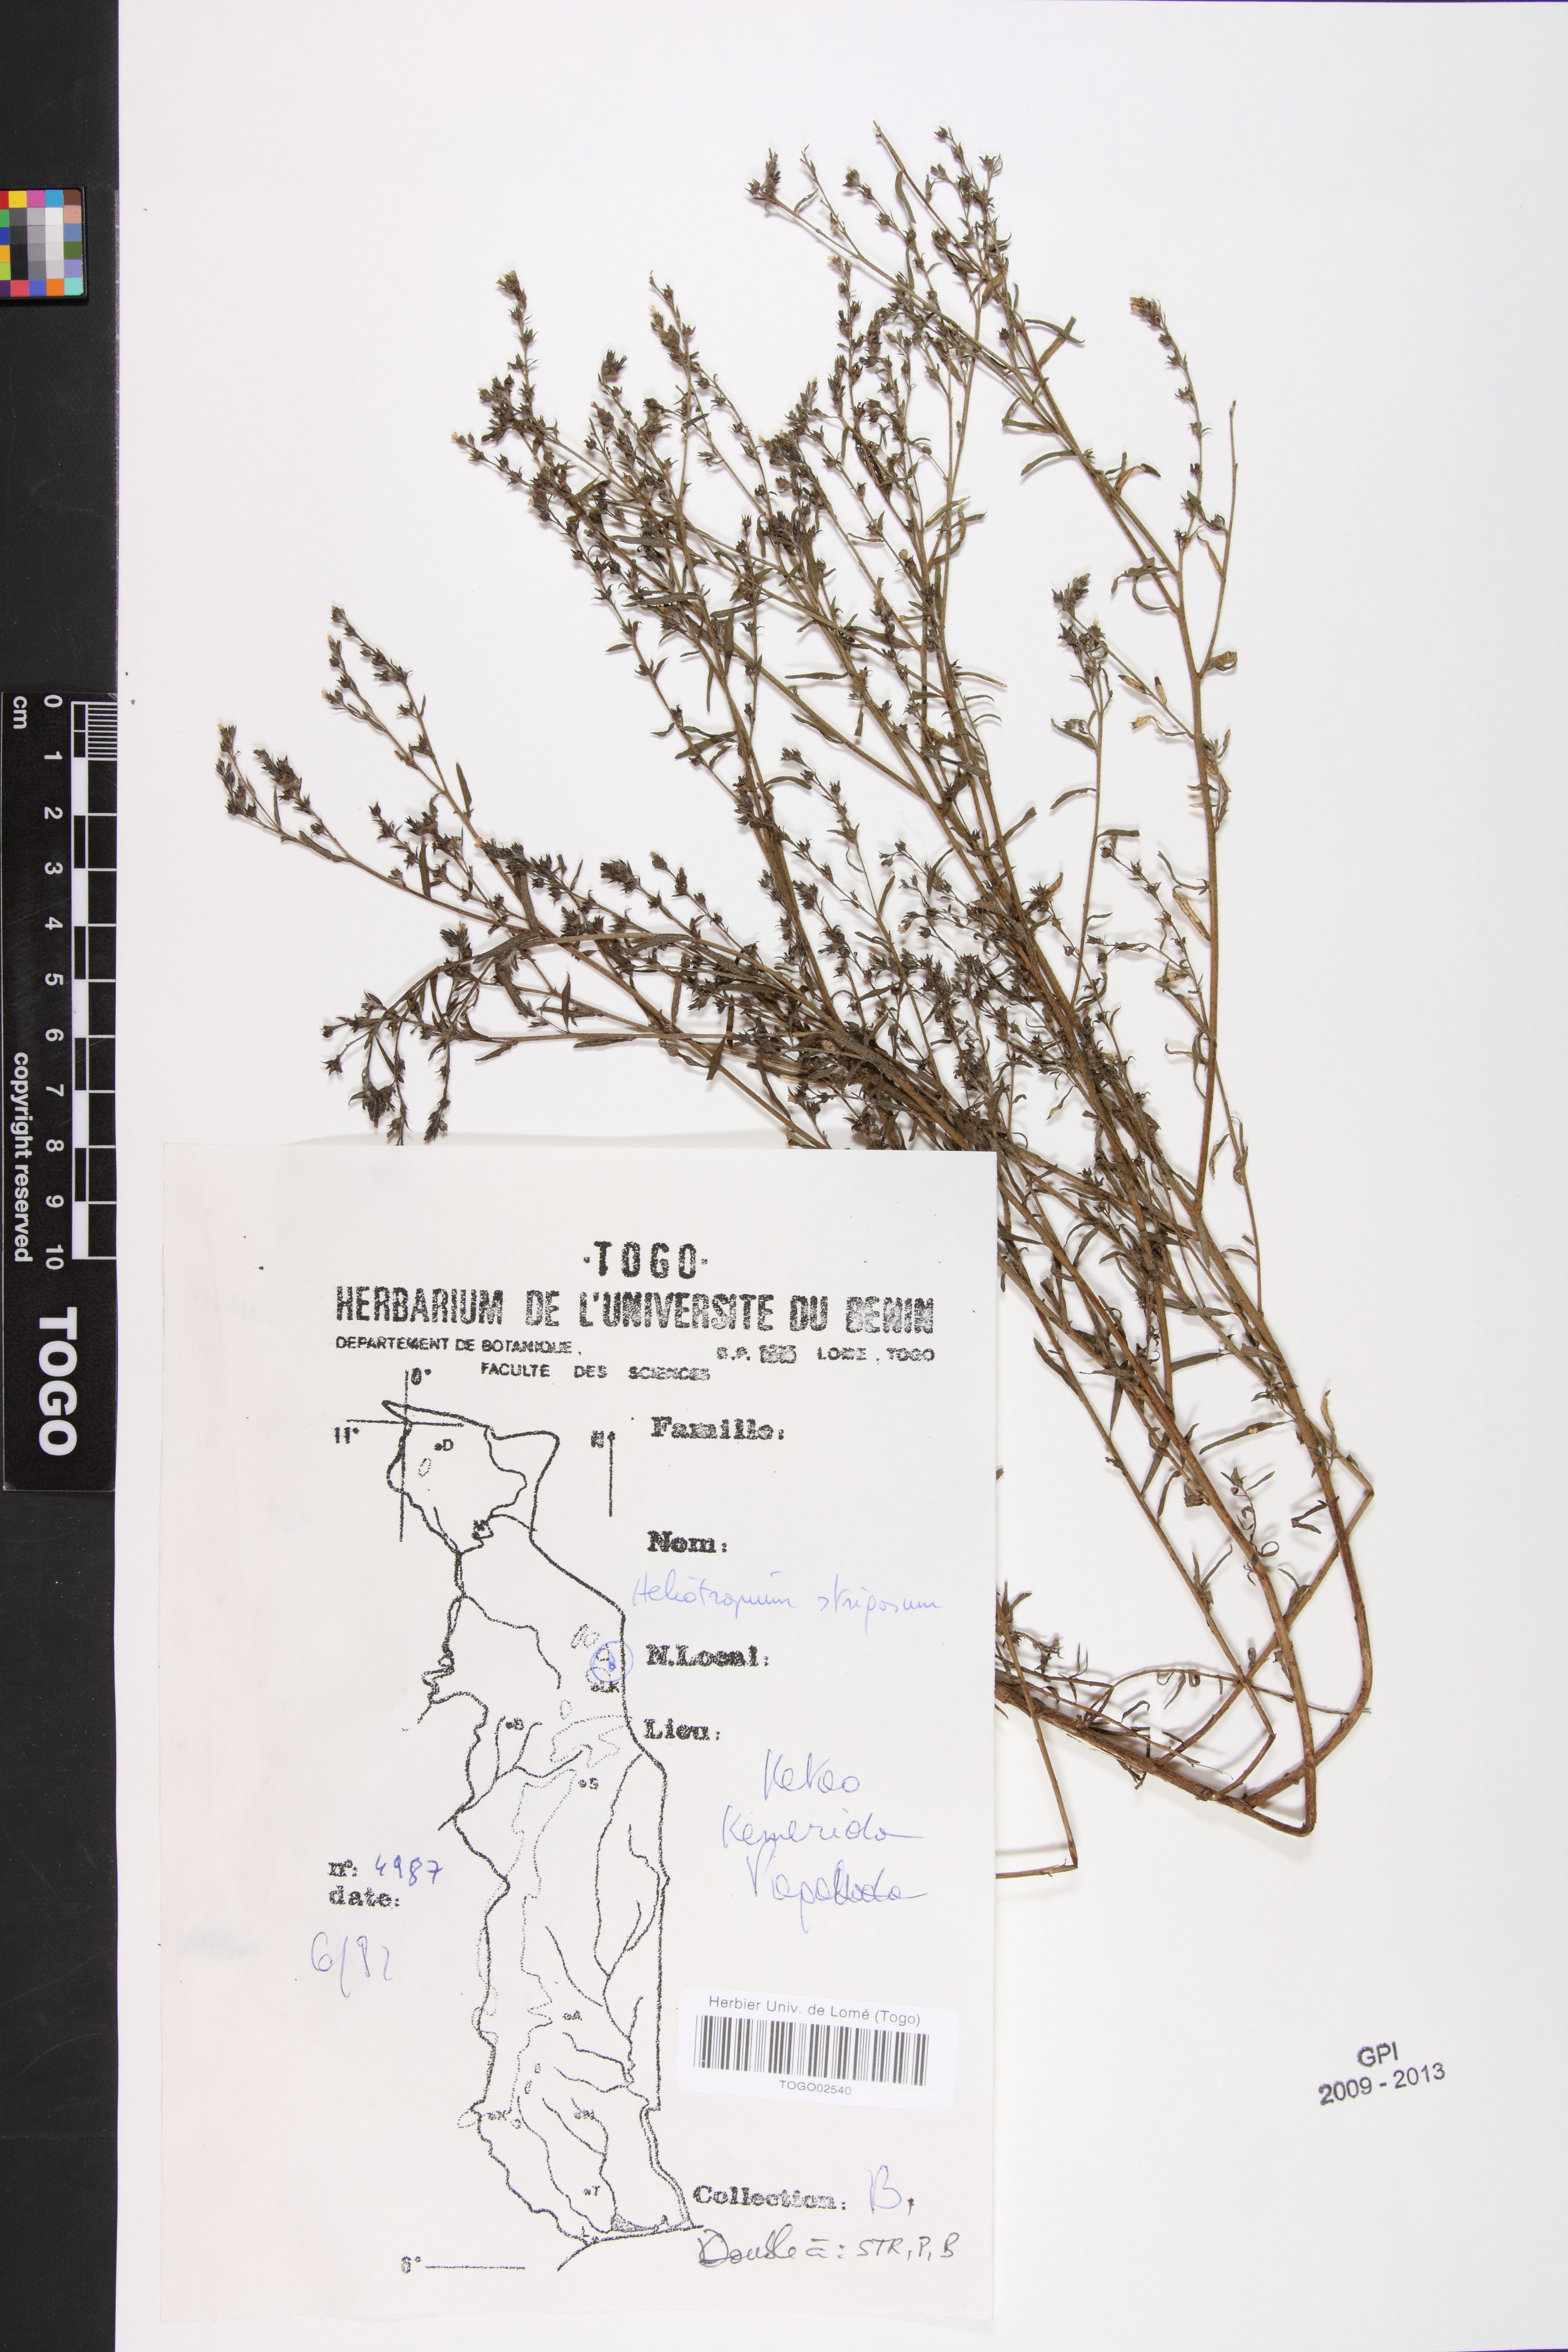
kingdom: Plantae
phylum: Tracheophyta
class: Magnoliopsida
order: Boraginales
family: Heliotropiaceae
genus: Euploca
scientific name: Euploca strigosa
